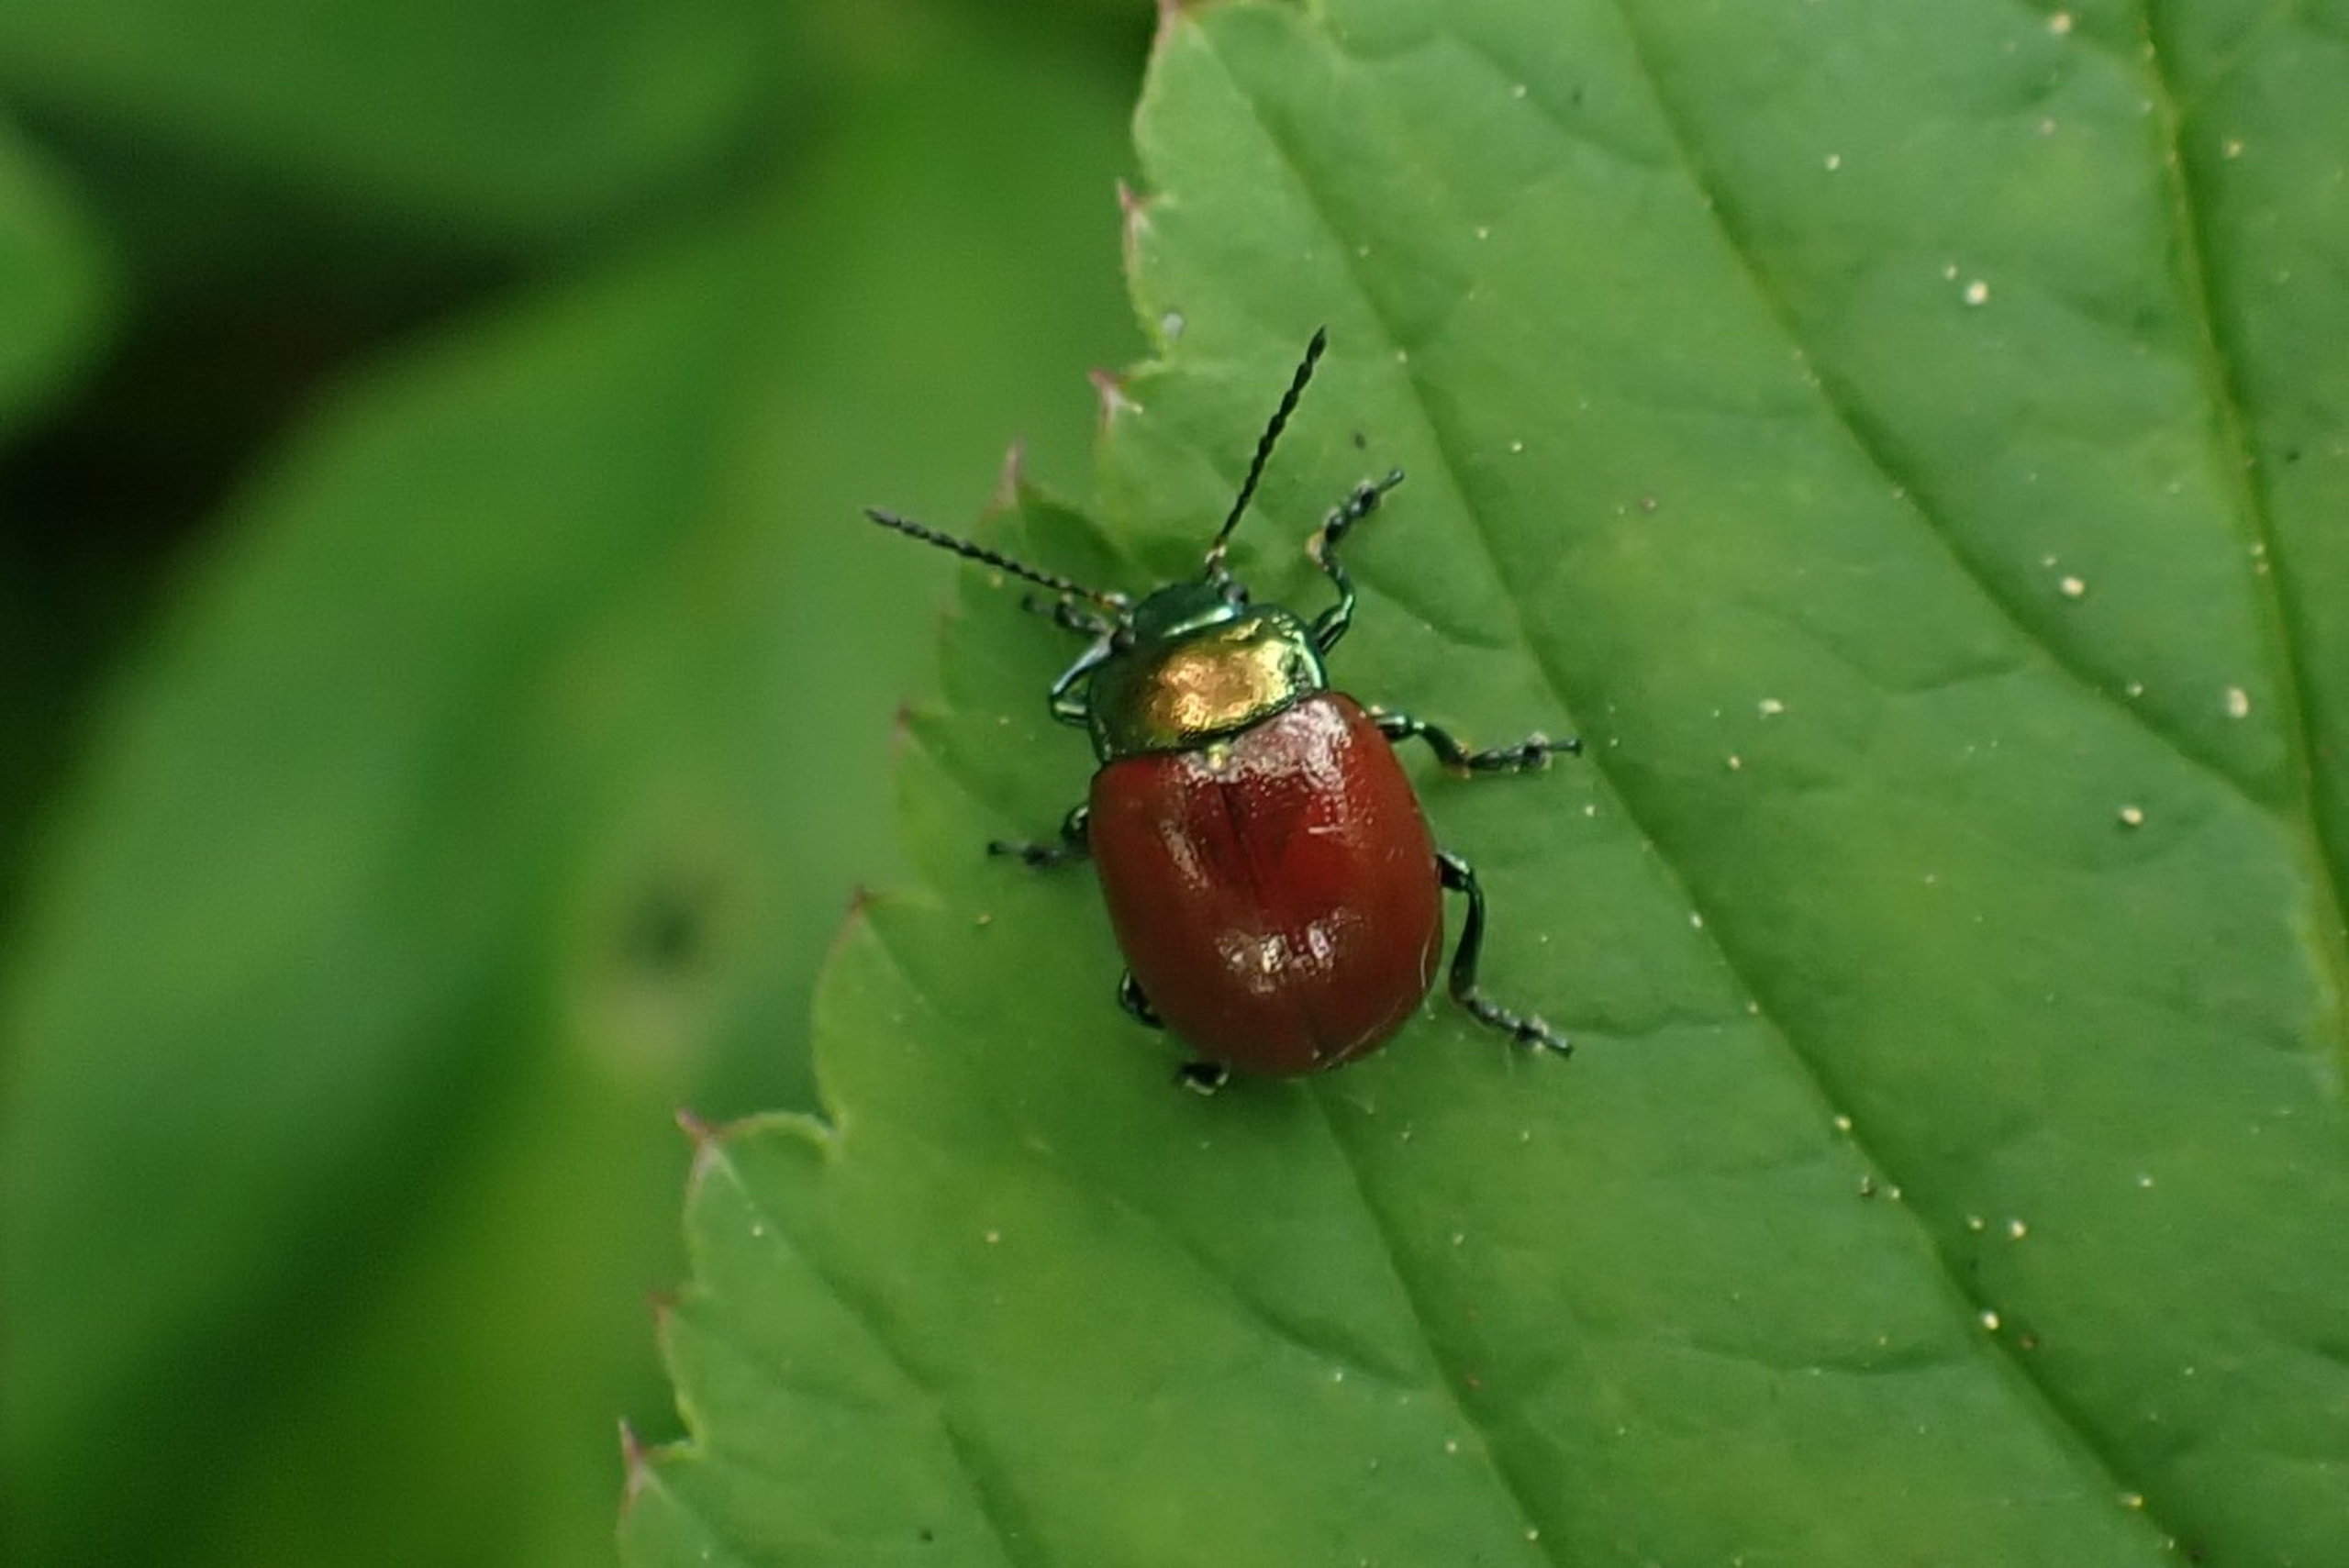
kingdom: Animalia
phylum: Arthropoda
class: Insecta
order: Coleoptera
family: Chrysomelidae
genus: Chrysomela
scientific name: Chrysomela polita
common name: Forskelligfarvet guldbille
